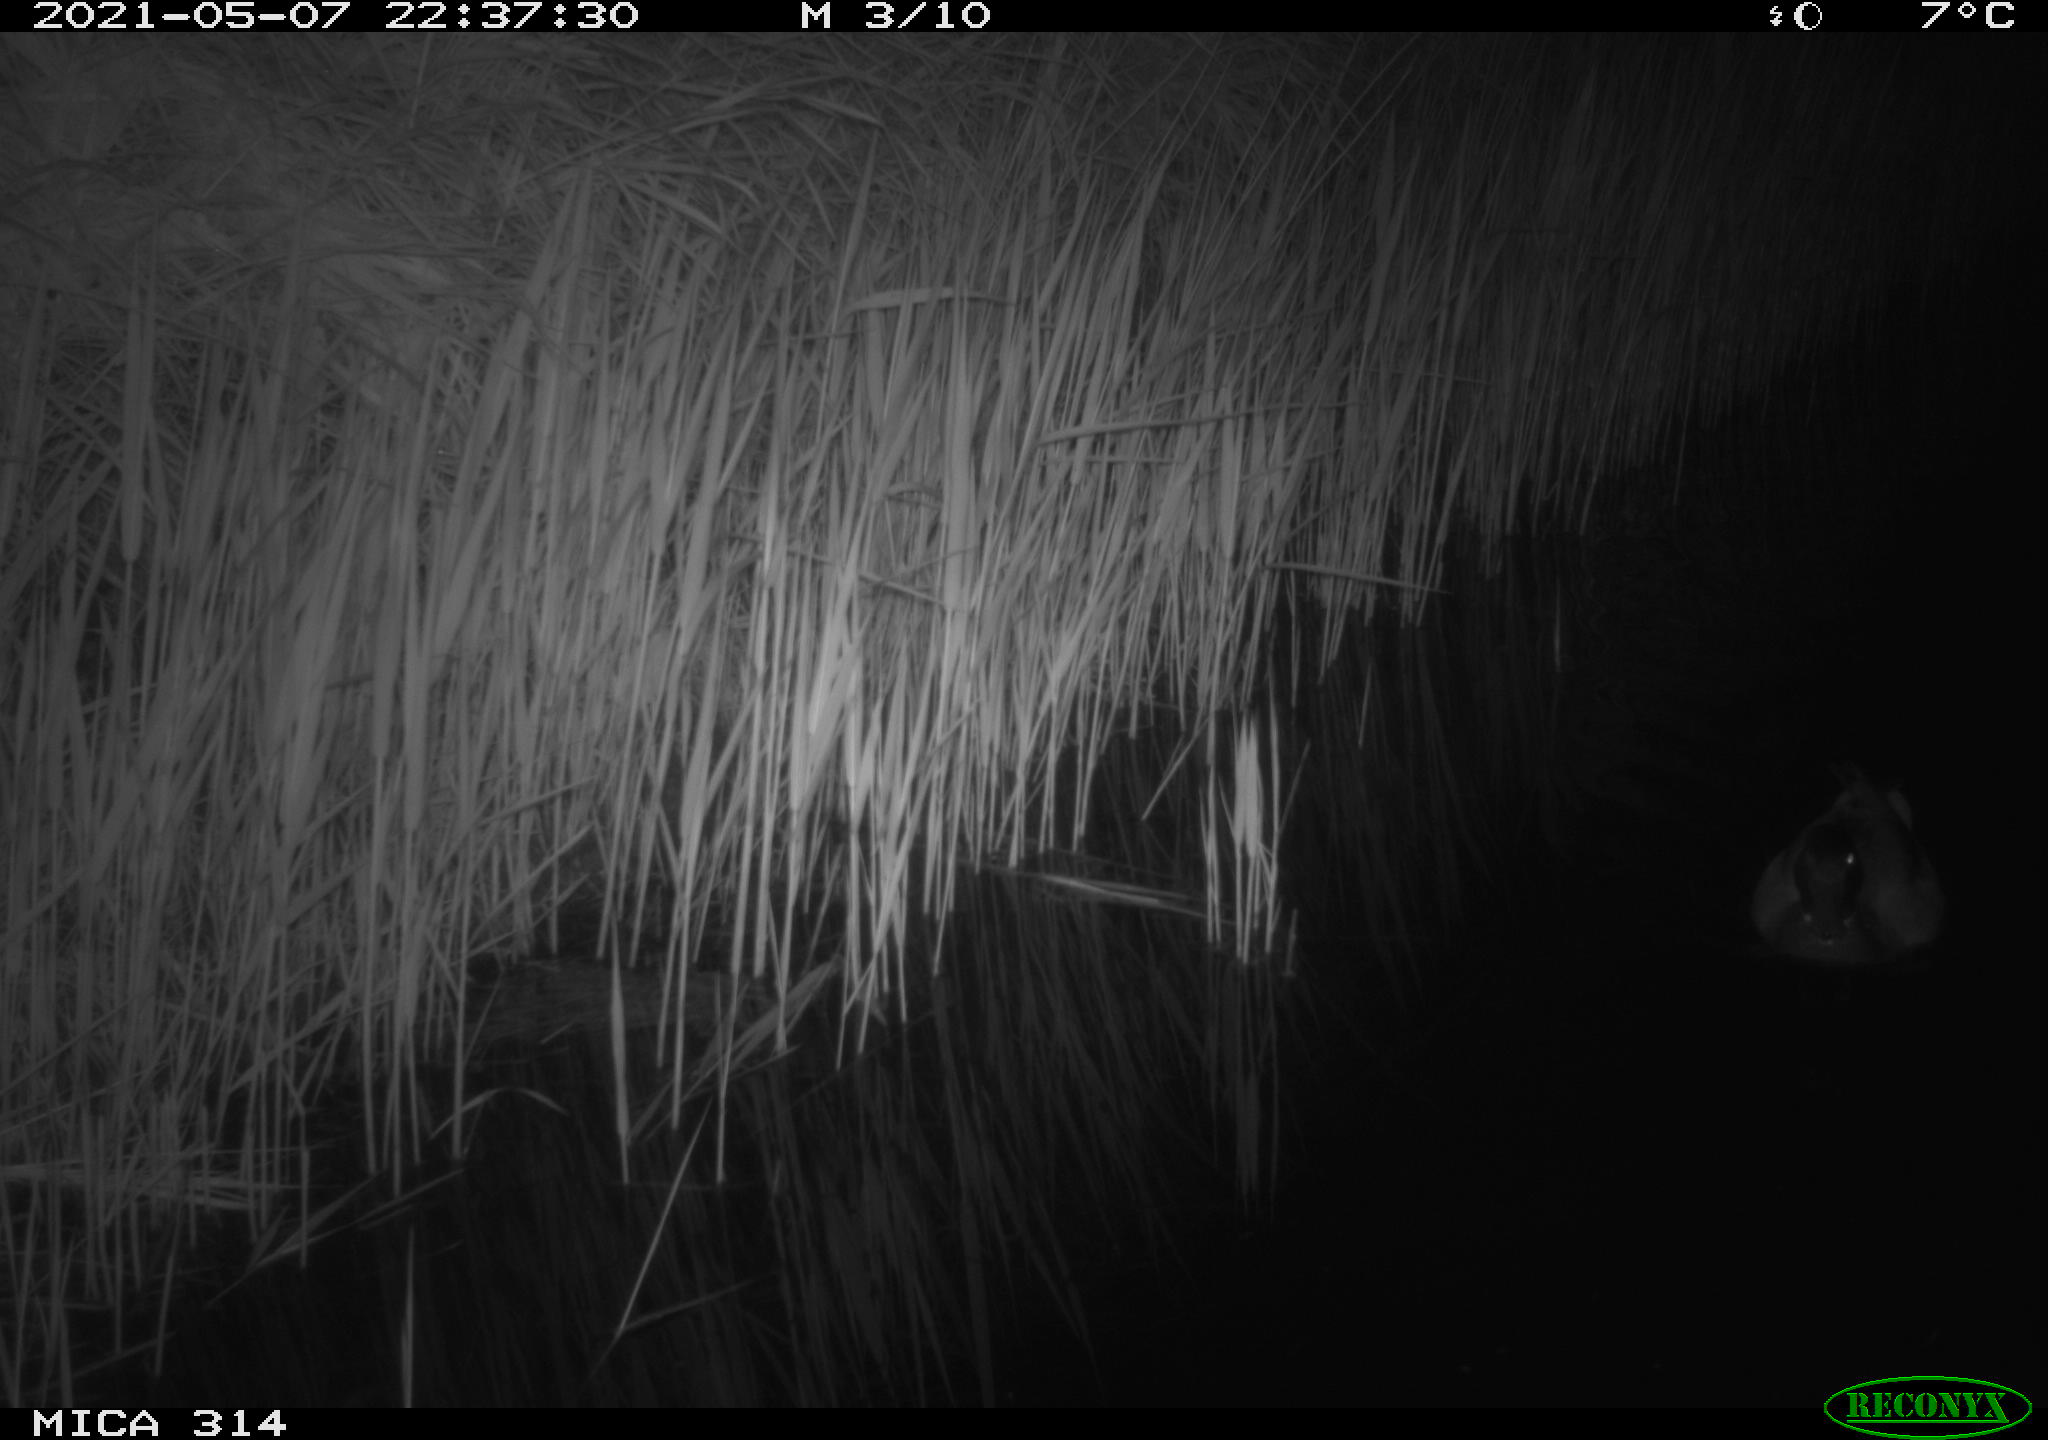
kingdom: Animalia
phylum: Chordata
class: Aves
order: Anseriformes
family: Anatidae
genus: Anas
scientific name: Anas platyrhynchos
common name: Mallard
